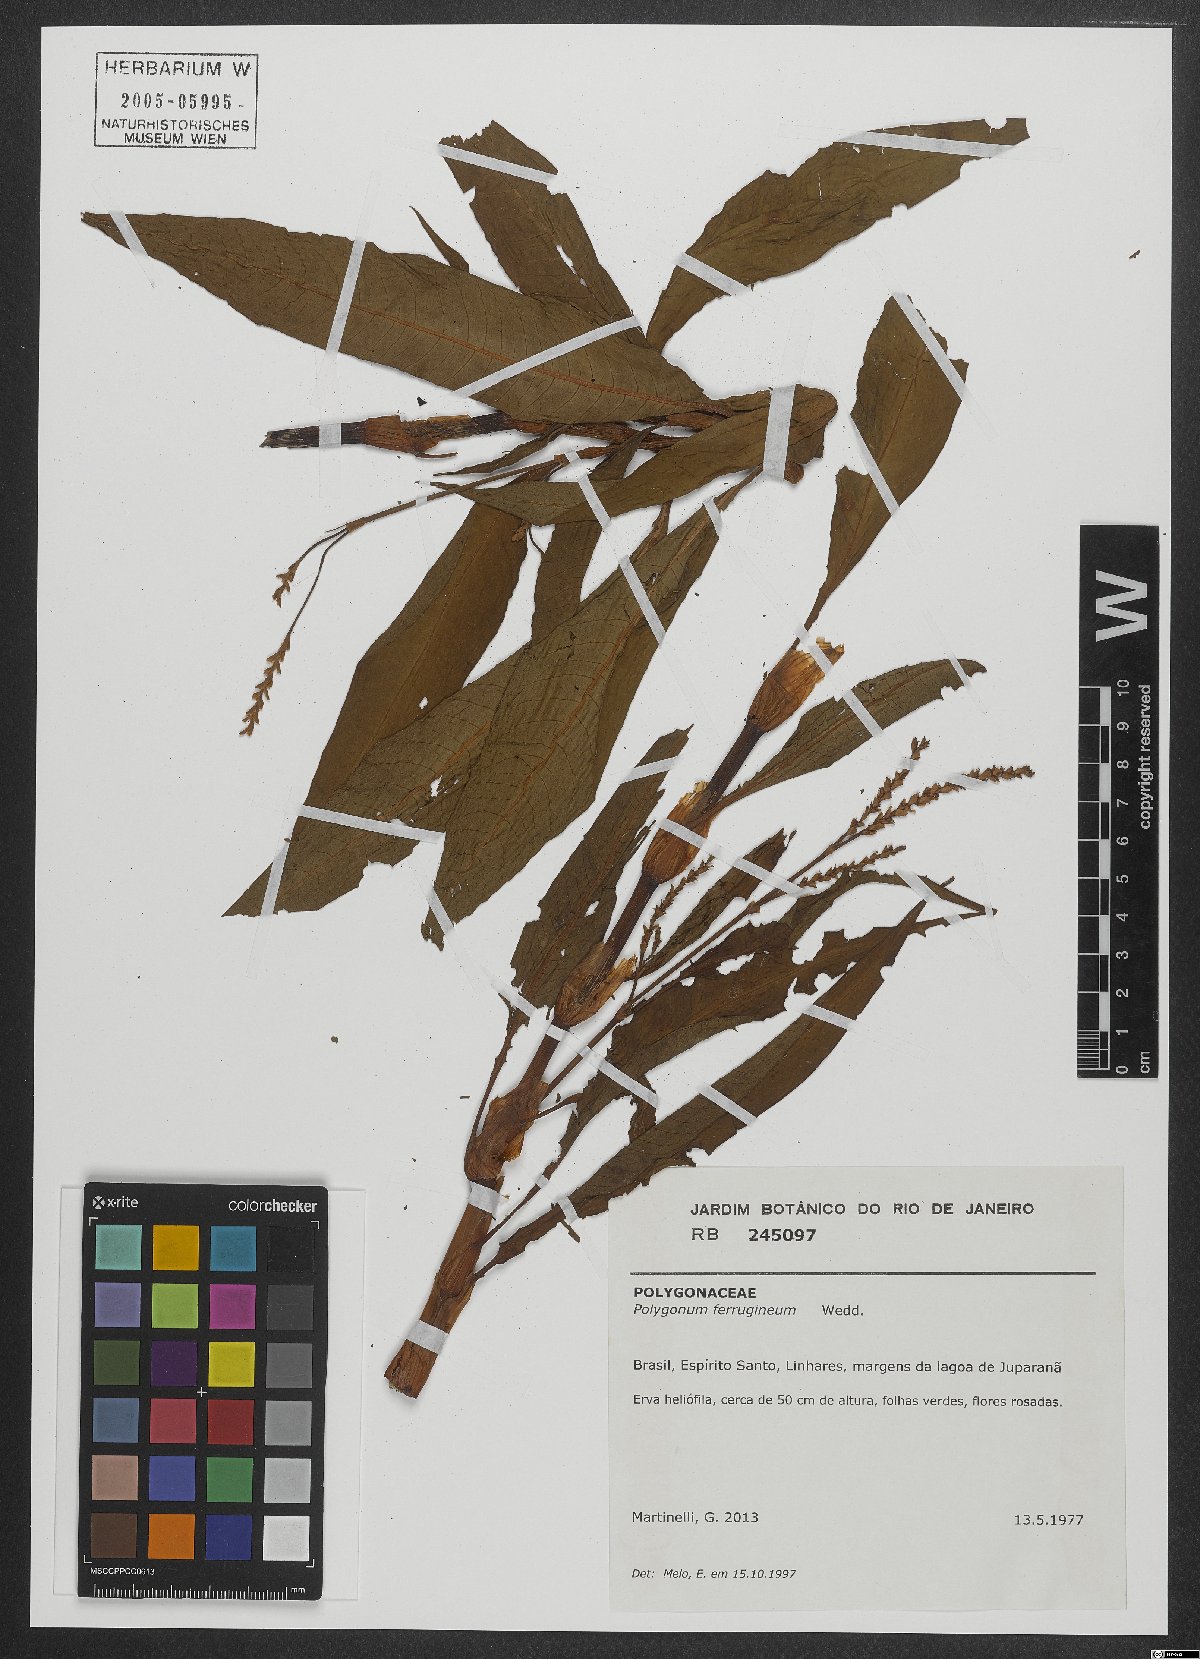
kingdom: Plantae
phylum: Tracheophyta
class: Magnoliopsida
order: Caryophyllales
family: Polygonaceae
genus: Persicaria
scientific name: Persicaria ferruginea
